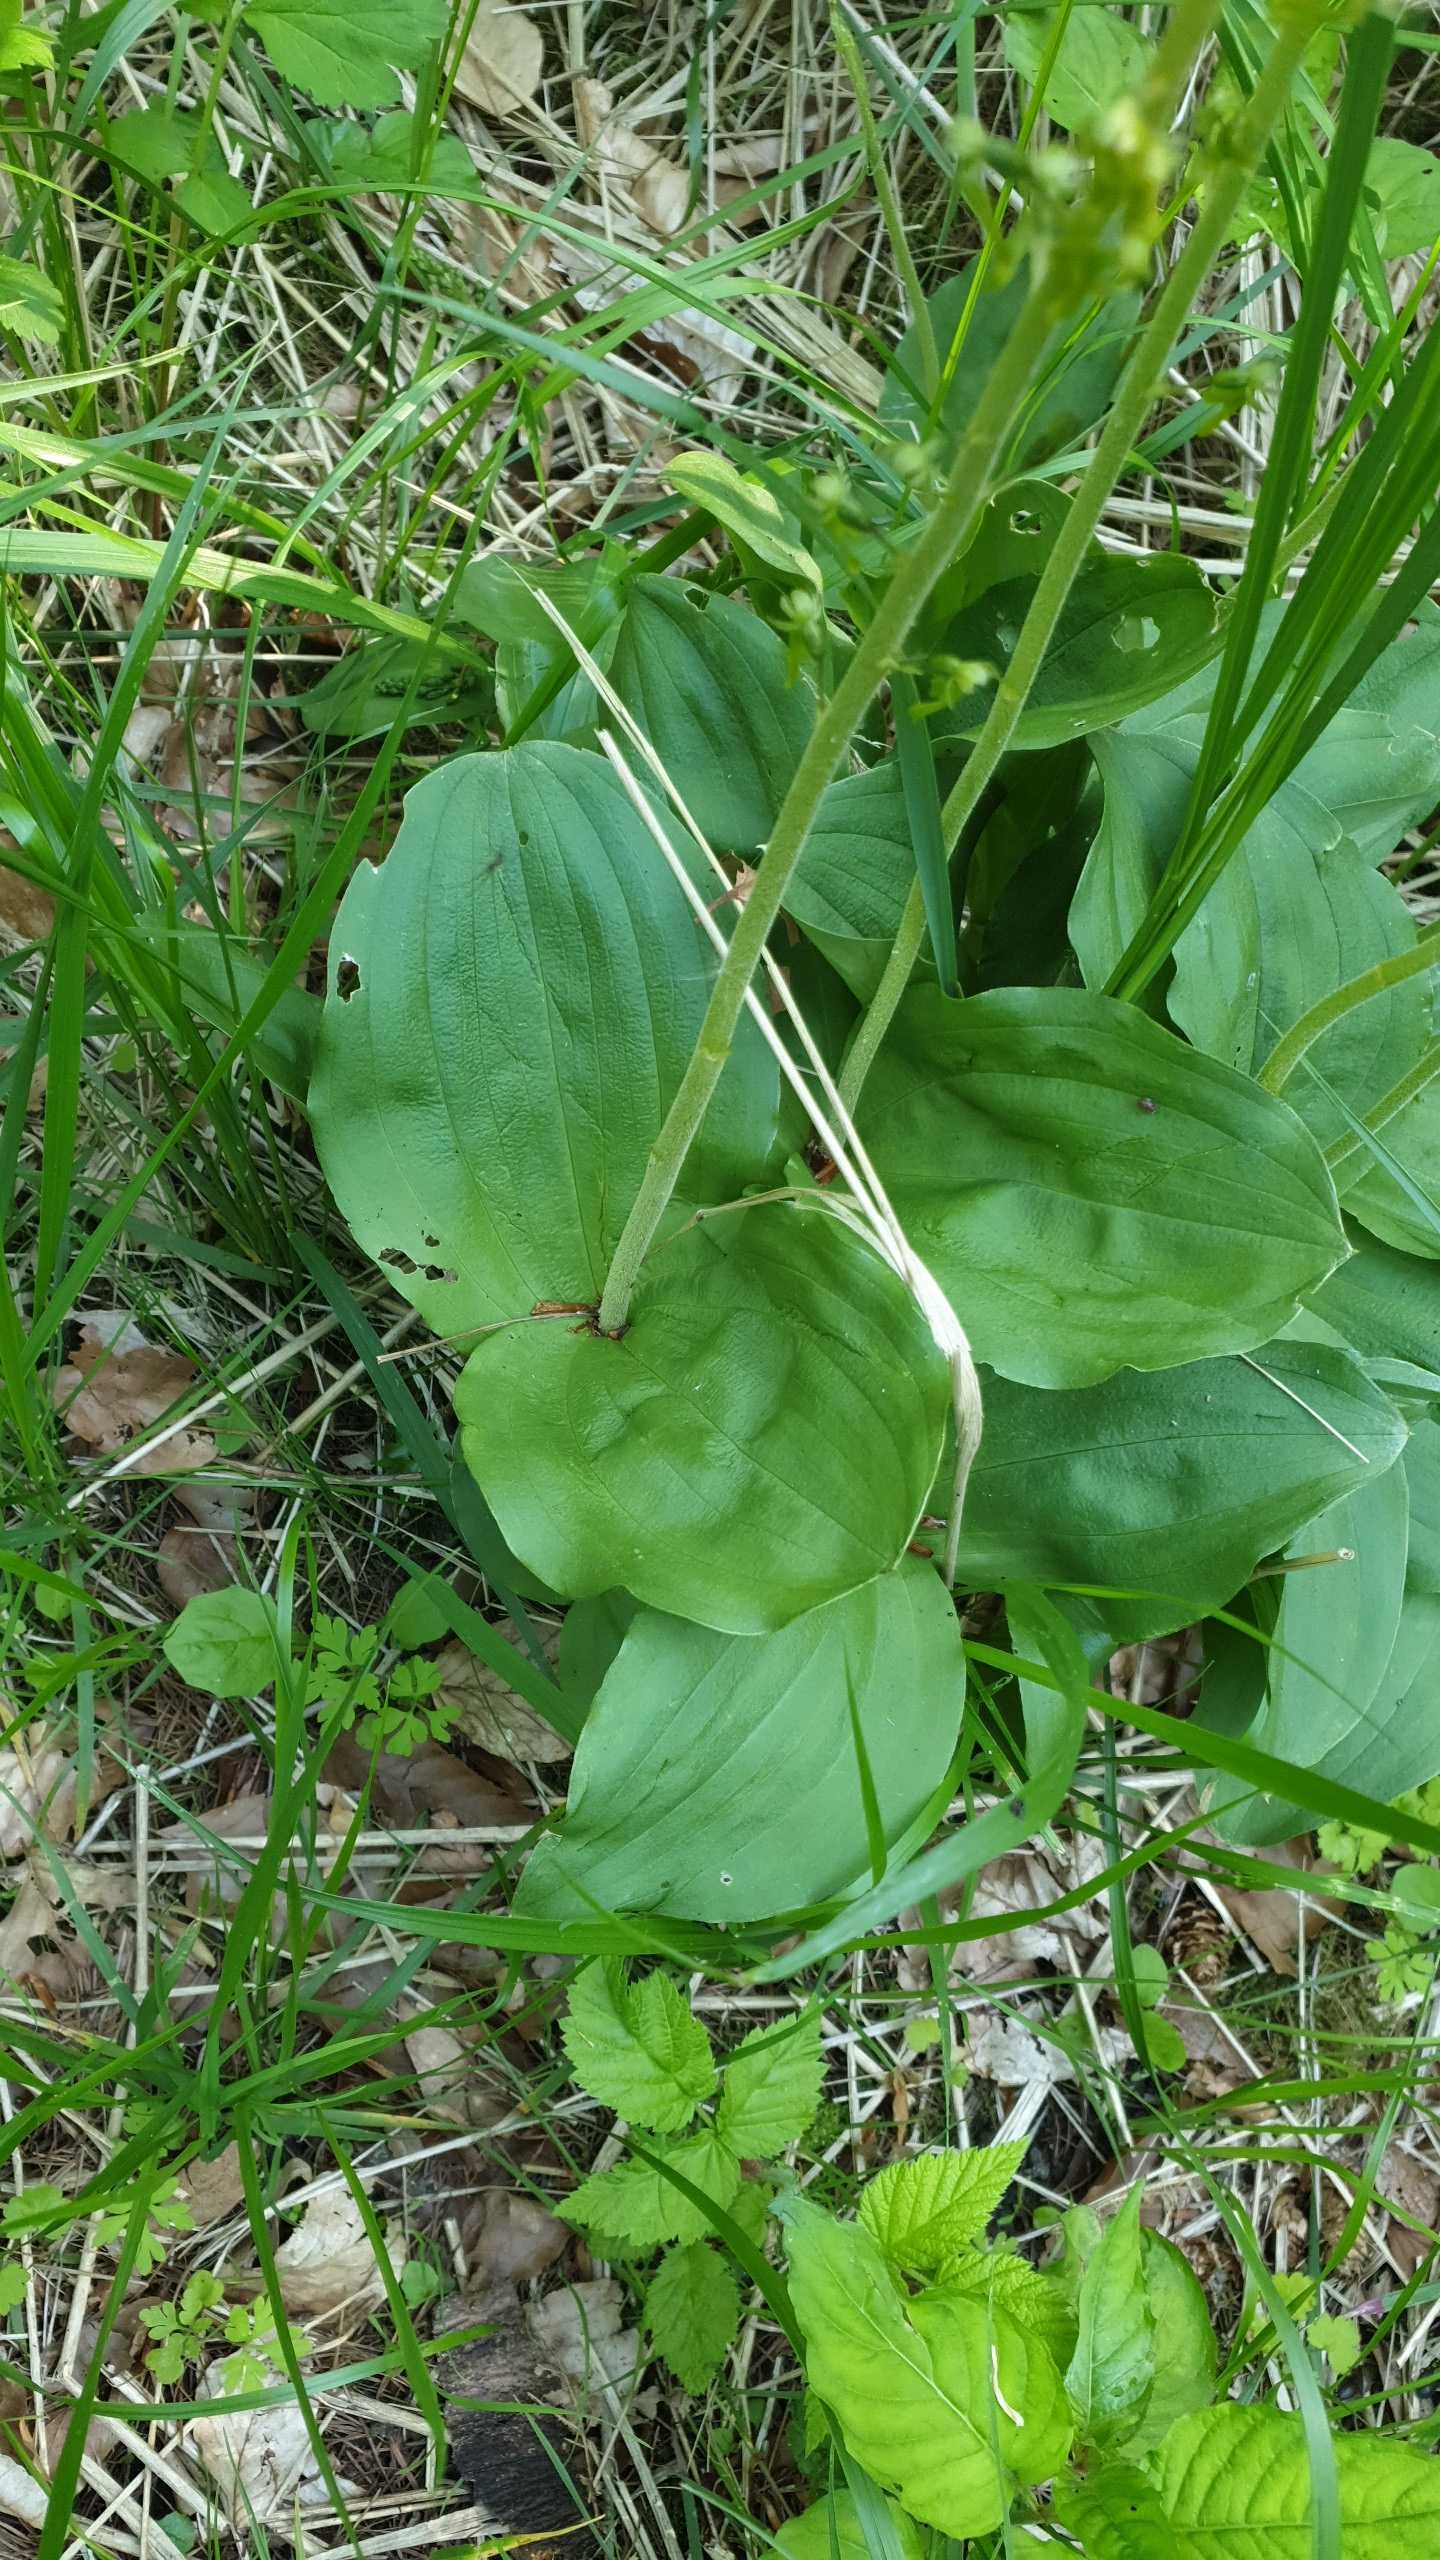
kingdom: Plantae
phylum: Tracheophyta
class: Liliopsida
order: Asparagales
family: Orchidaceae
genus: Neottia
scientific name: Neottia ovata
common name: Ægbladet fliglæbe
